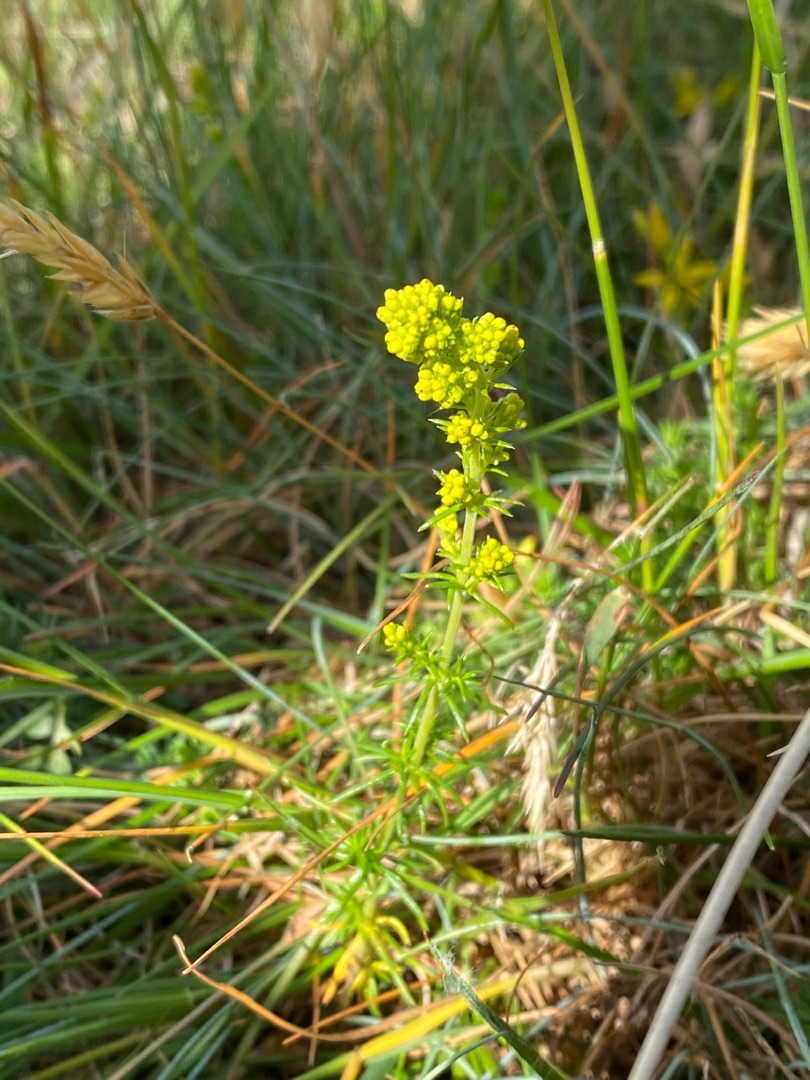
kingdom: Plantae
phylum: Tracheophyta
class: Magnoliopsida
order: Gentianales
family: Rubiaceae
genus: Galium
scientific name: Galium verum
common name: Gul snerre
